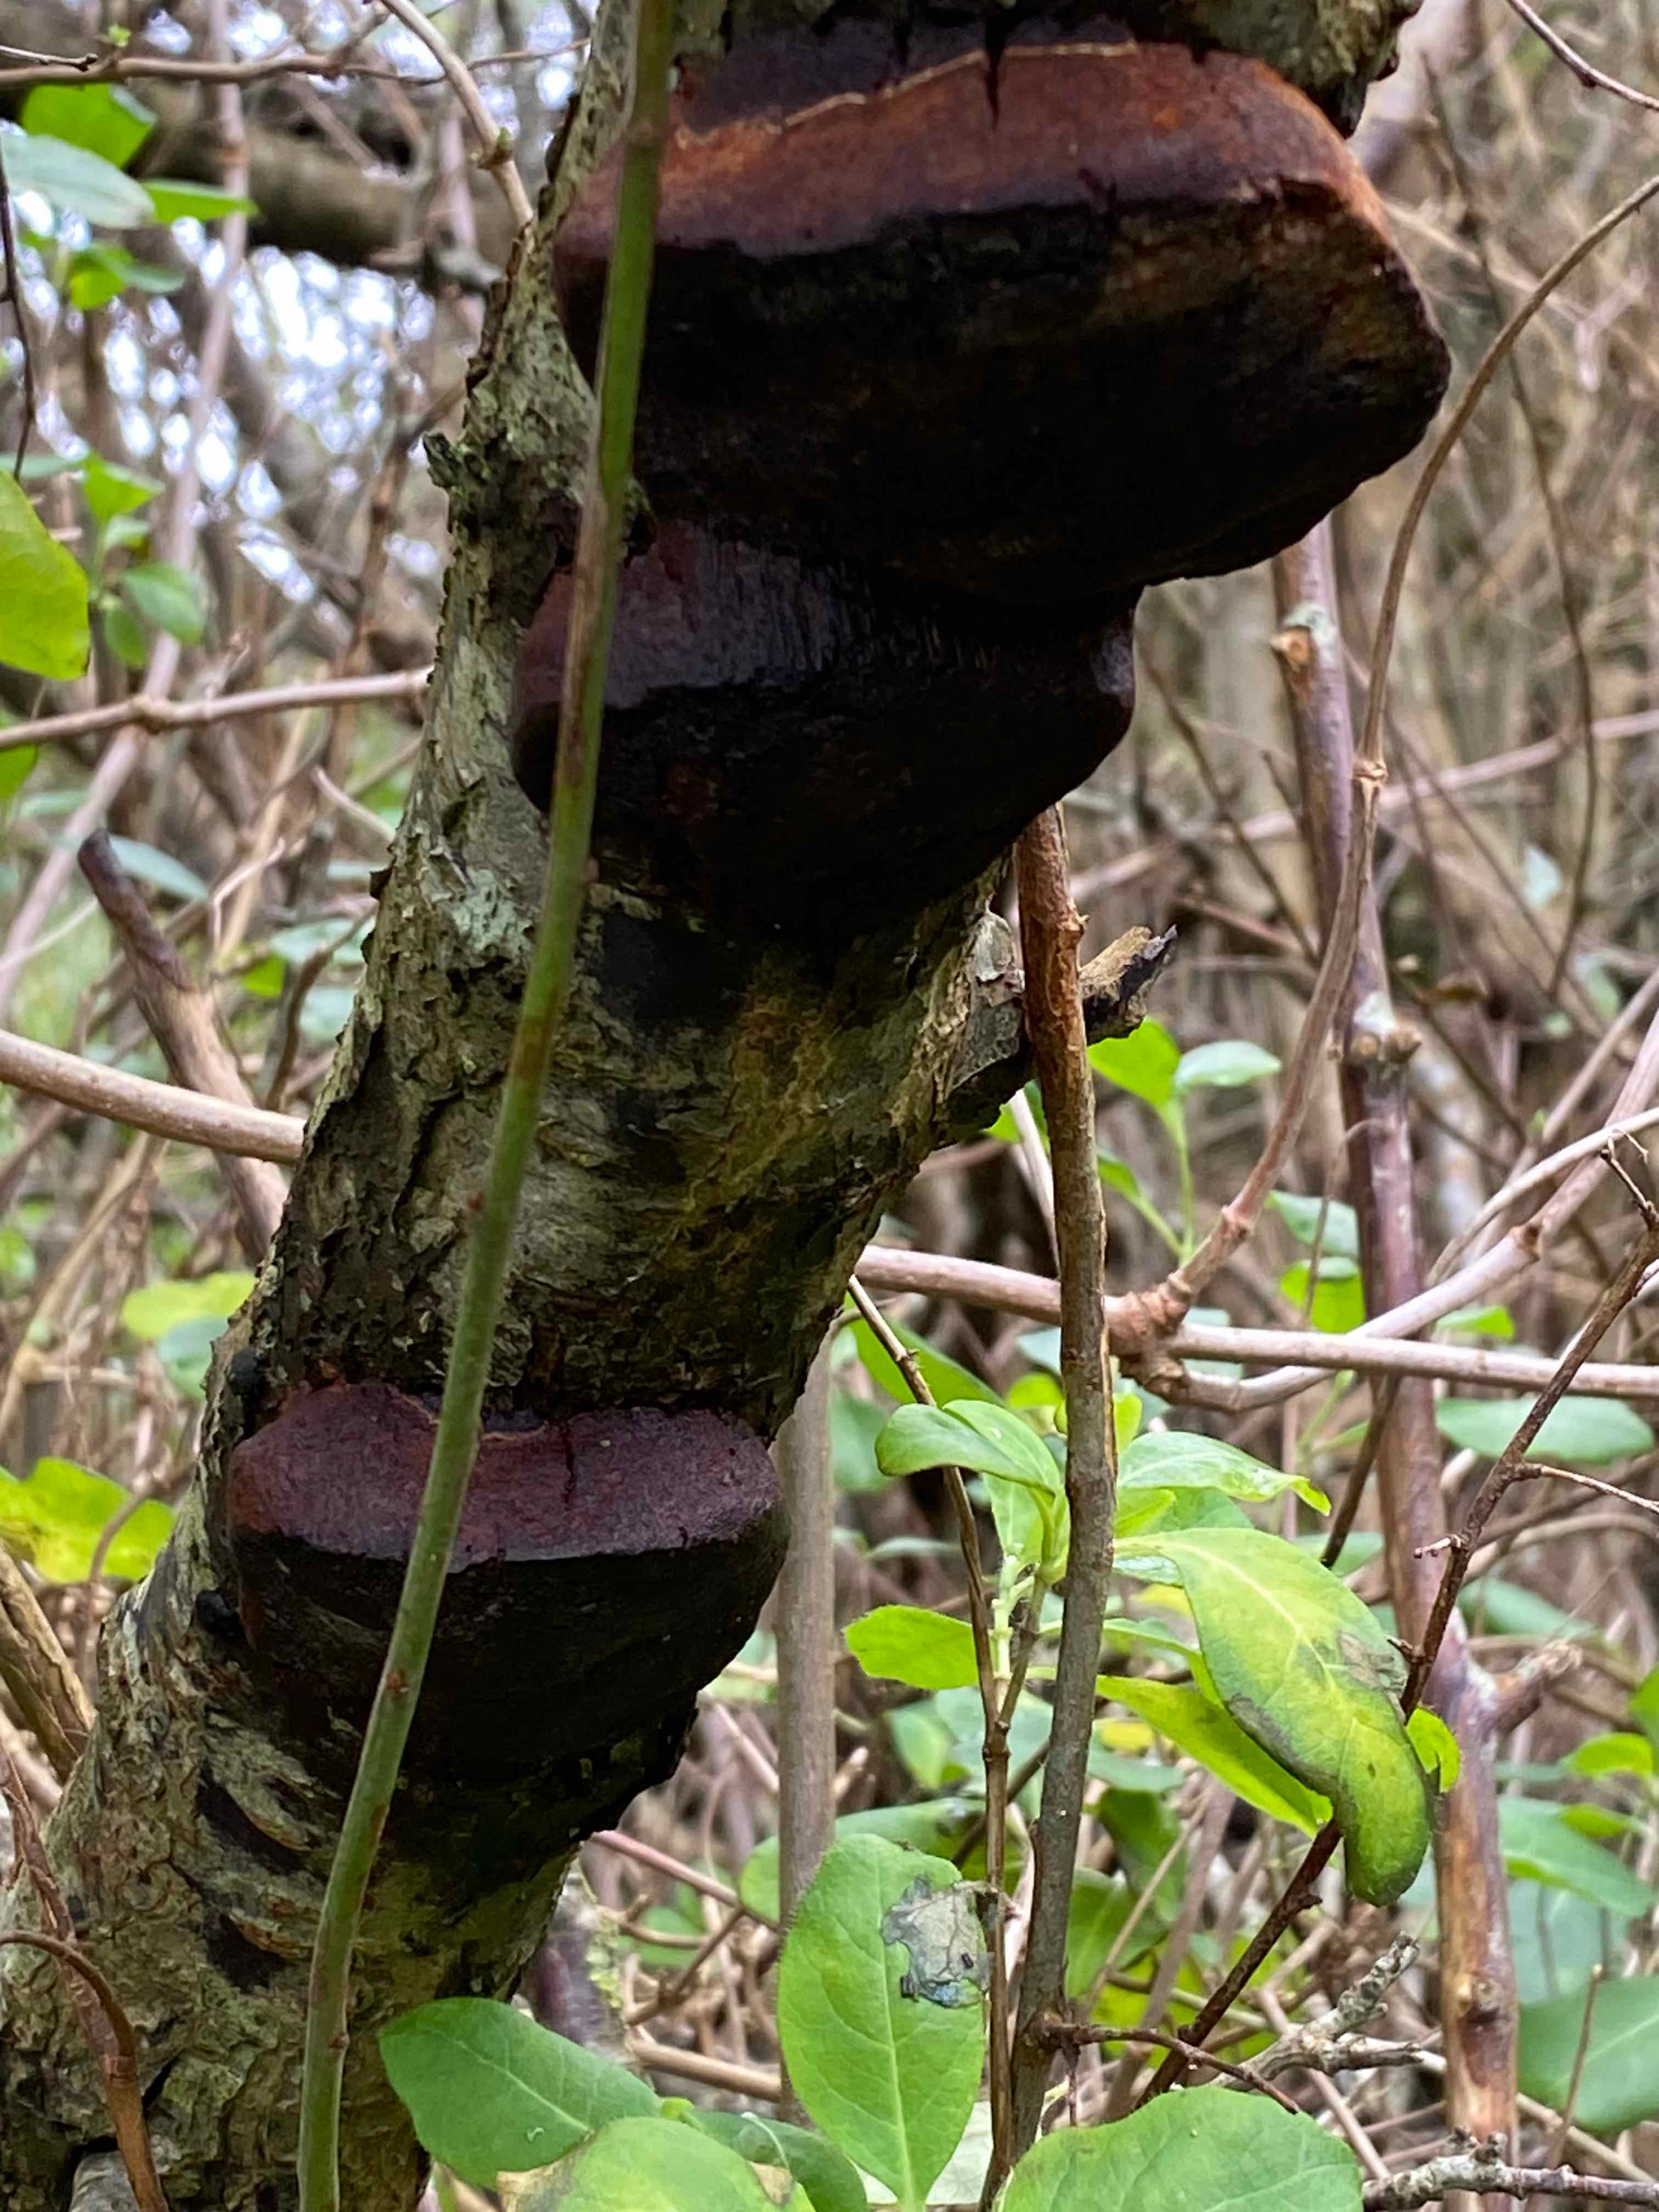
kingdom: Fungi
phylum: Basidiomycota
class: Agaricomycetes
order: Hymenochaetales
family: Hymenochaetaceae
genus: Phellinus
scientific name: Phellinus pomaceus
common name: blomme-ildporesvamp
